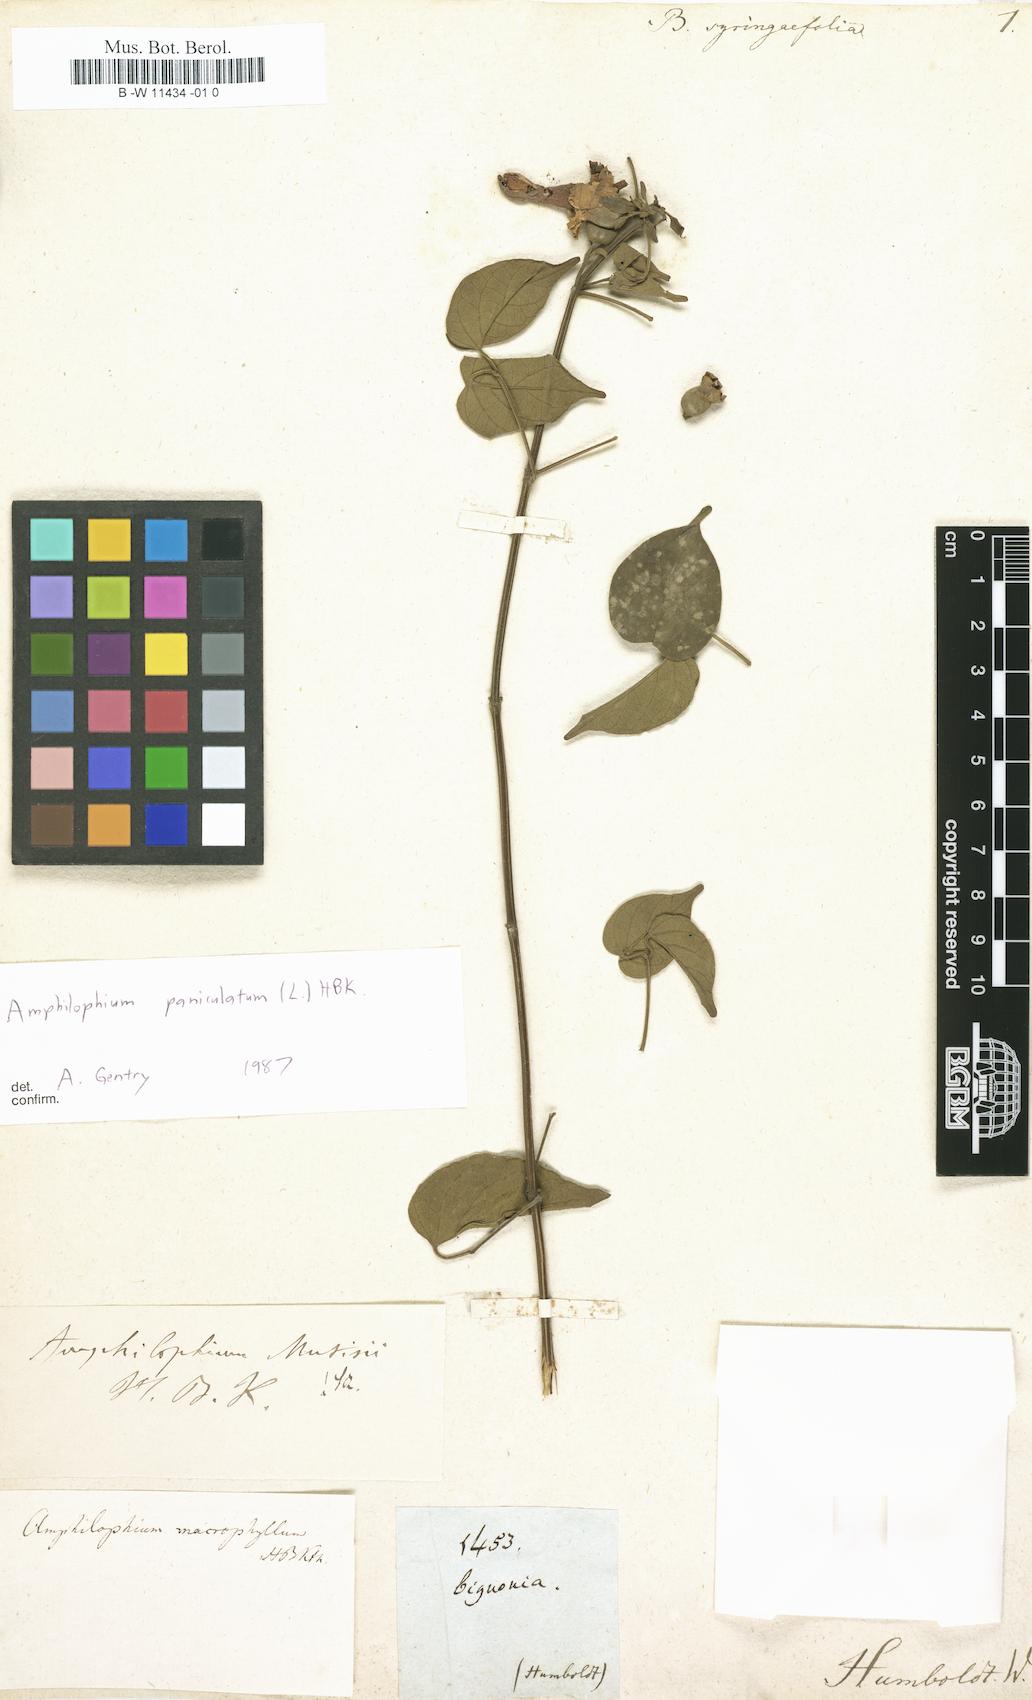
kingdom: Plantae
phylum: Tracheophyta
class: Magnoliopsida
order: Lamiales
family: Bignoniaceae
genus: Bignonia
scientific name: Bignonia
